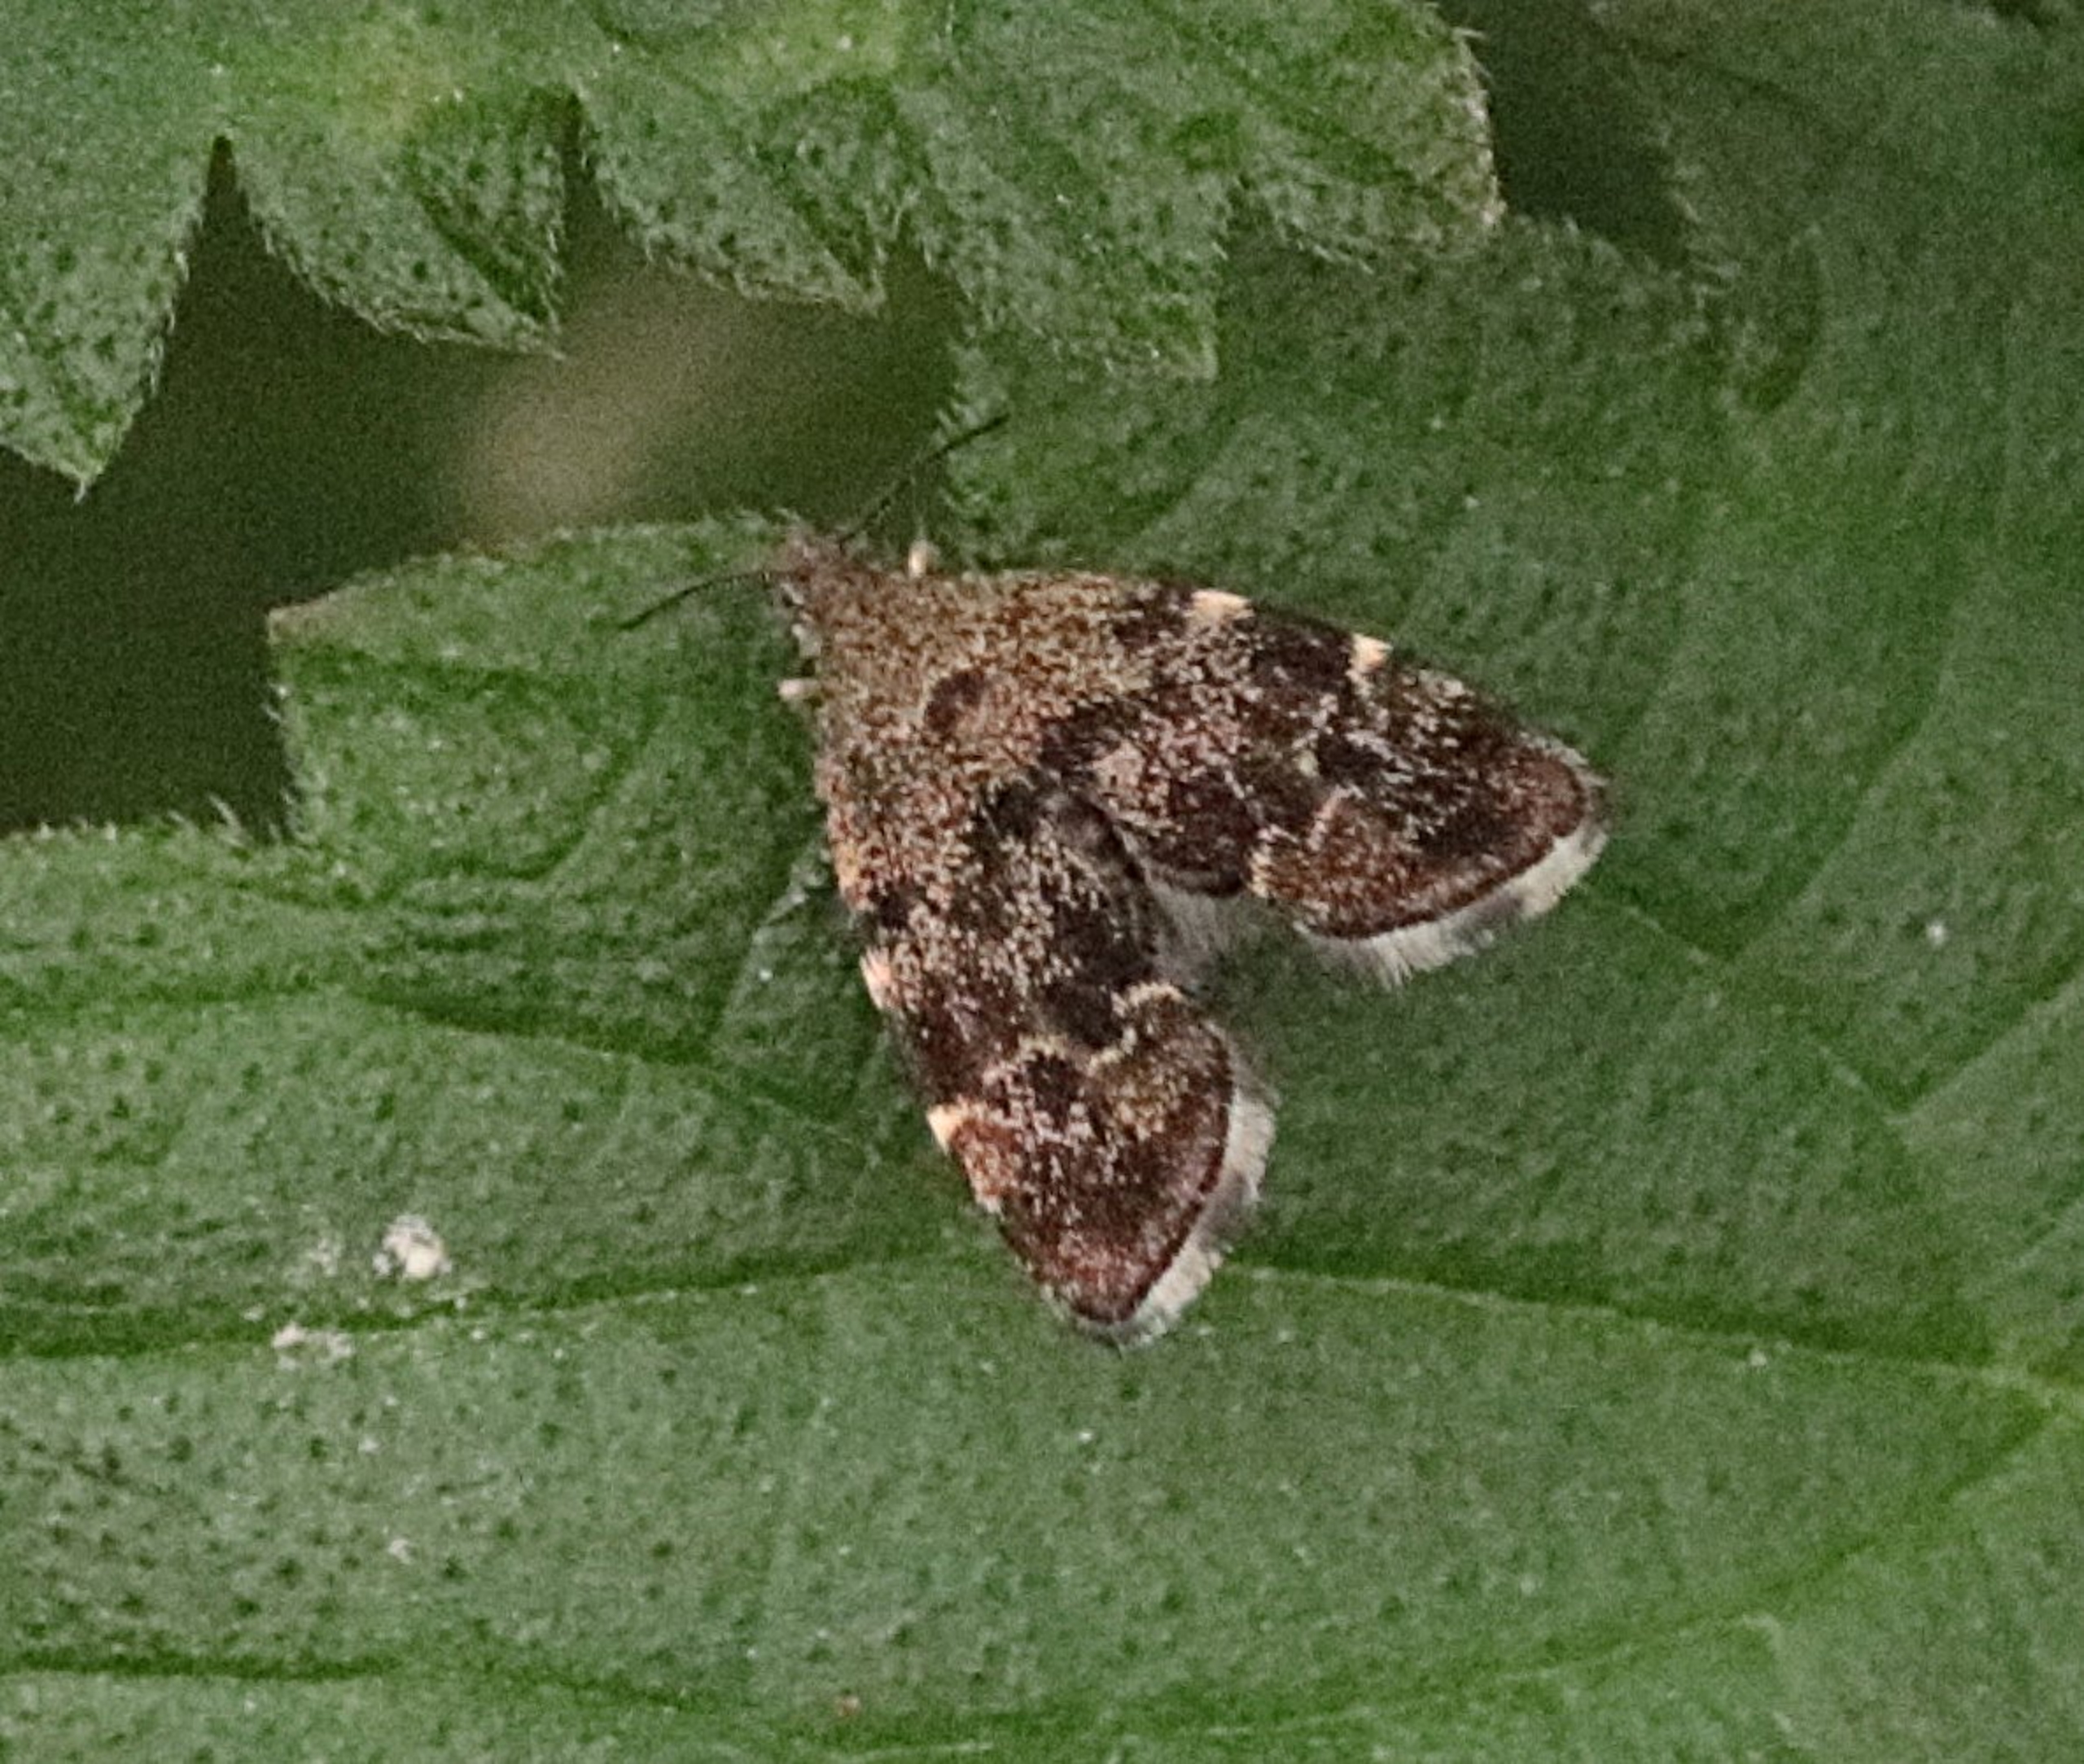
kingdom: Animalia
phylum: Arthropoda
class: Insecta
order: Lepidoptera
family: Choreutidae
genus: Anthophila
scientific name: Anthophila fabriciana
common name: Bredvinget nældevikler
